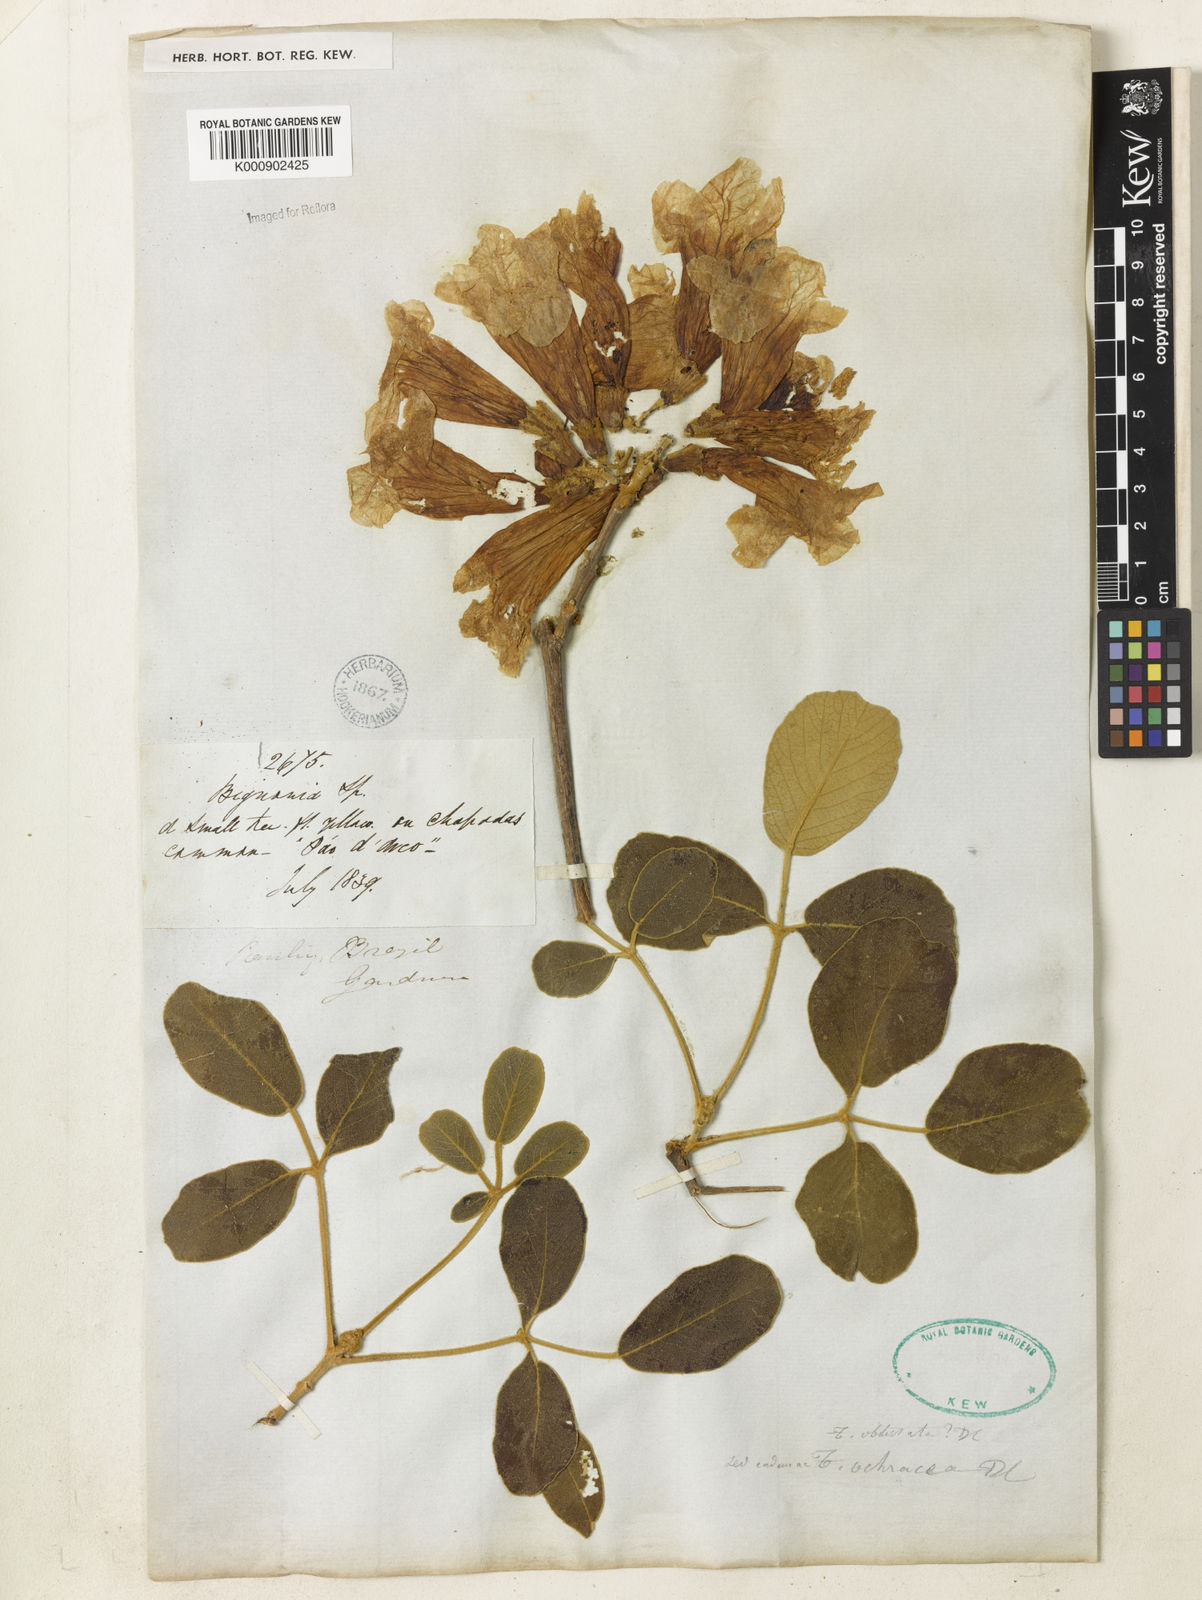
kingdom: Plantae
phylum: Tracheophyta
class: Magnoliopsida
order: Lamiales
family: Bignoniaceae
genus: Handroanthus
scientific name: Handroanthus ochraceus
